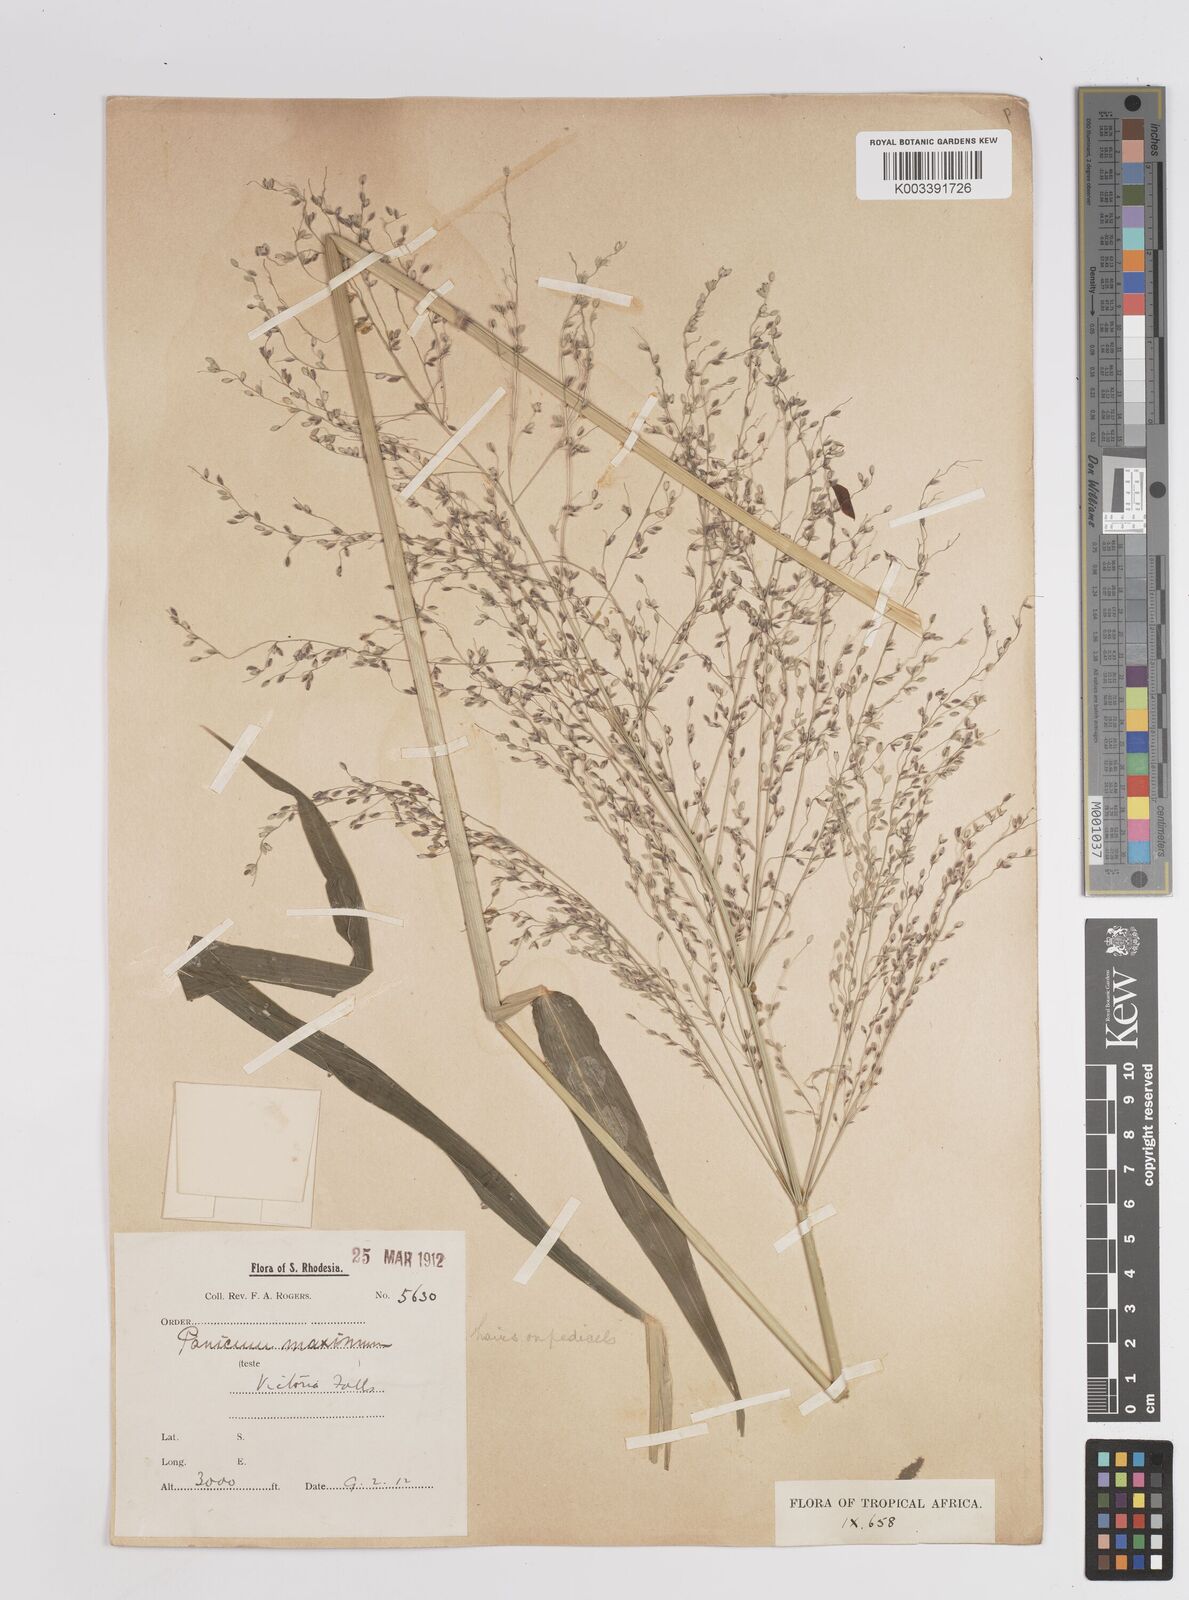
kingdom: Plantae
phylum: Tracheophyta
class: Liliopsida
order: Poales
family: Poaceae
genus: Megathyrsus
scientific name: Megathyrsus maximus
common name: Guineagrass
